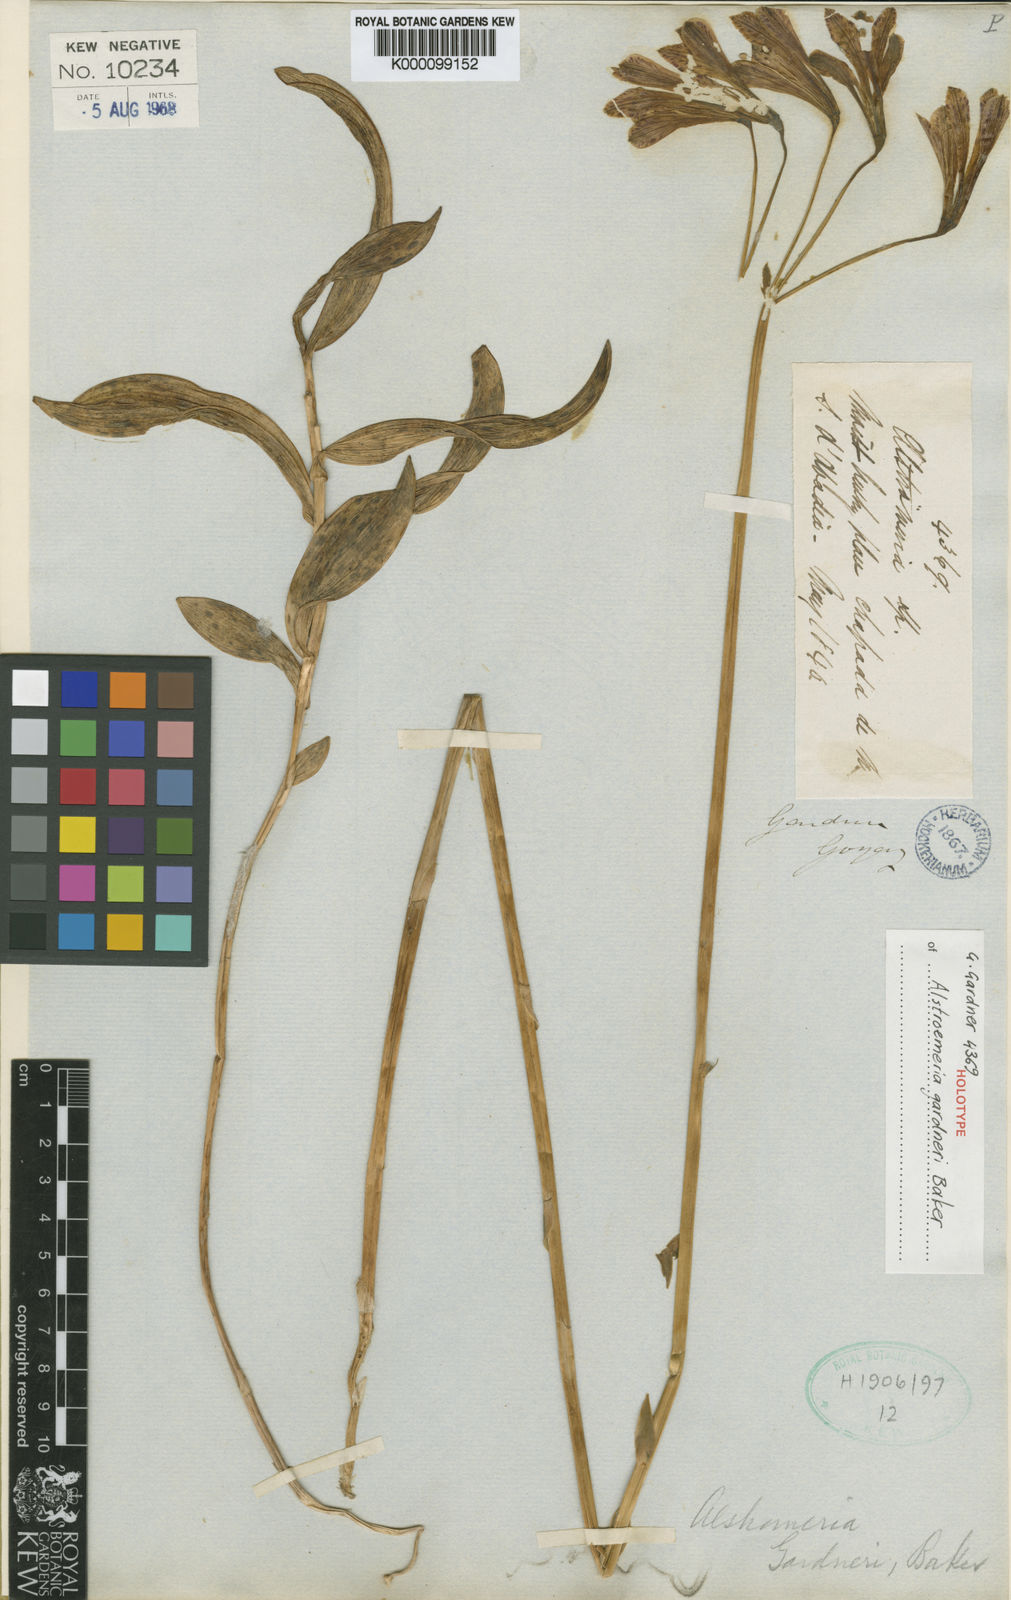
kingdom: Plantae
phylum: Tracheophyta
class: Liliopsida
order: Liliales
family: Alstroemeriaceae
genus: Alstroemeria
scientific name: Alstroemeria gardneri
